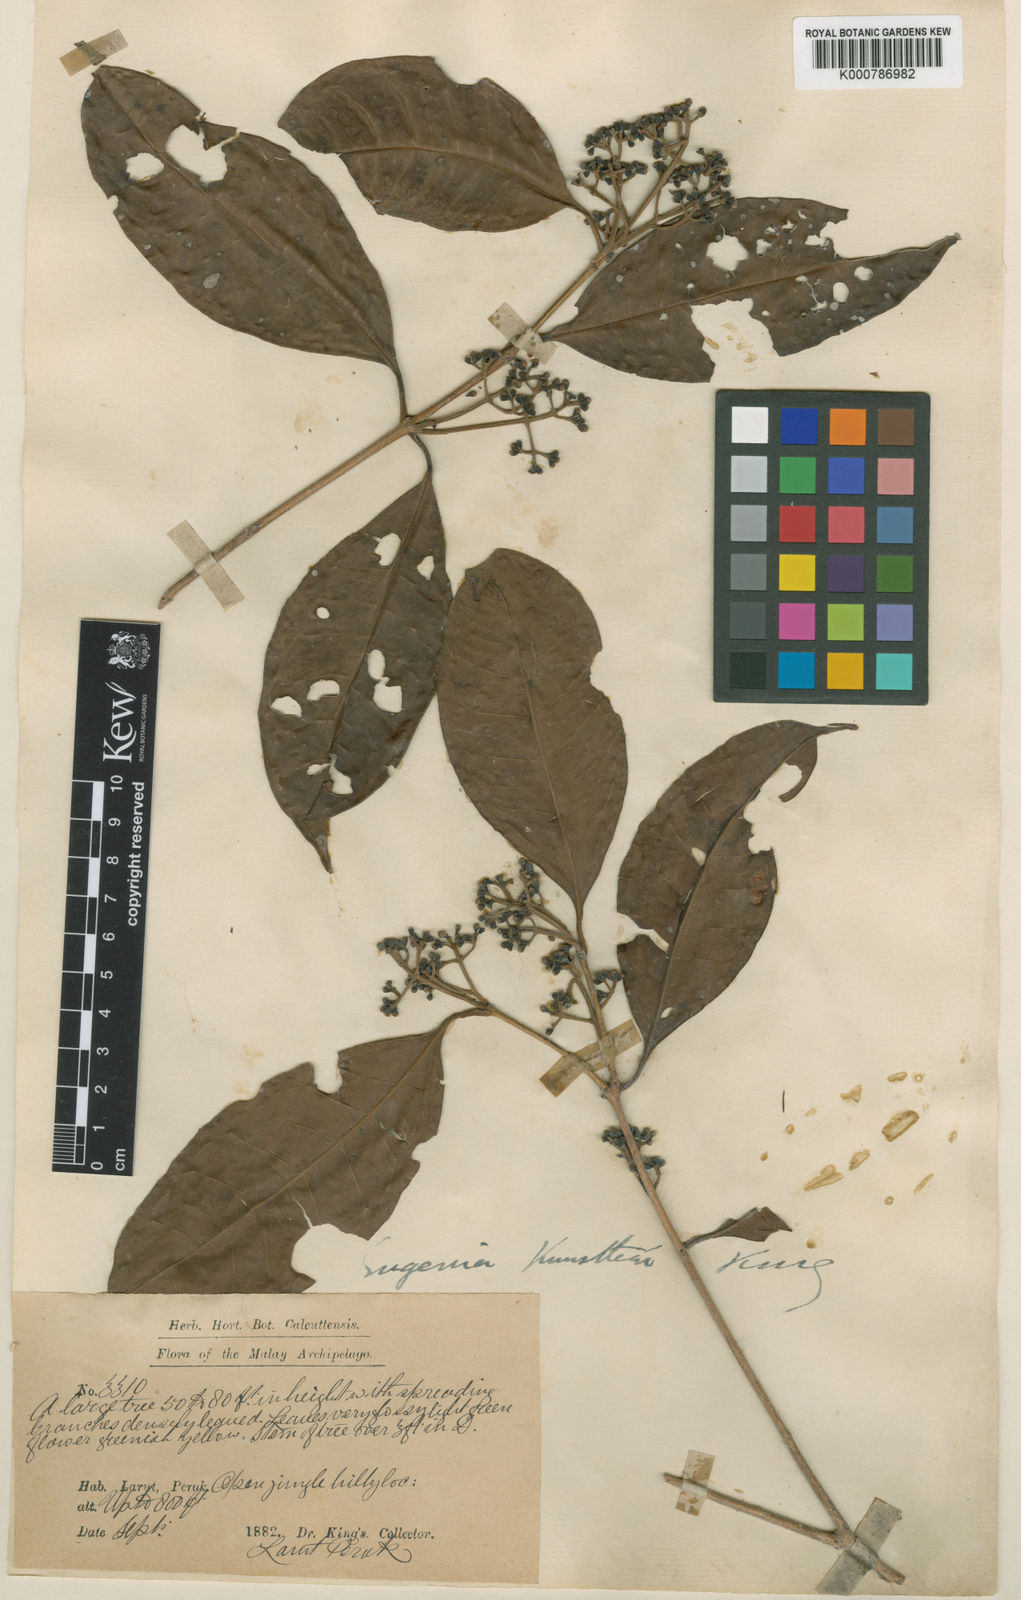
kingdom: Plantae
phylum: Tracheophyta
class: Magnoliopsida
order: Myrtales
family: Myrtaceae
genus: Syzygium
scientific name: Syzygium kunstleri
